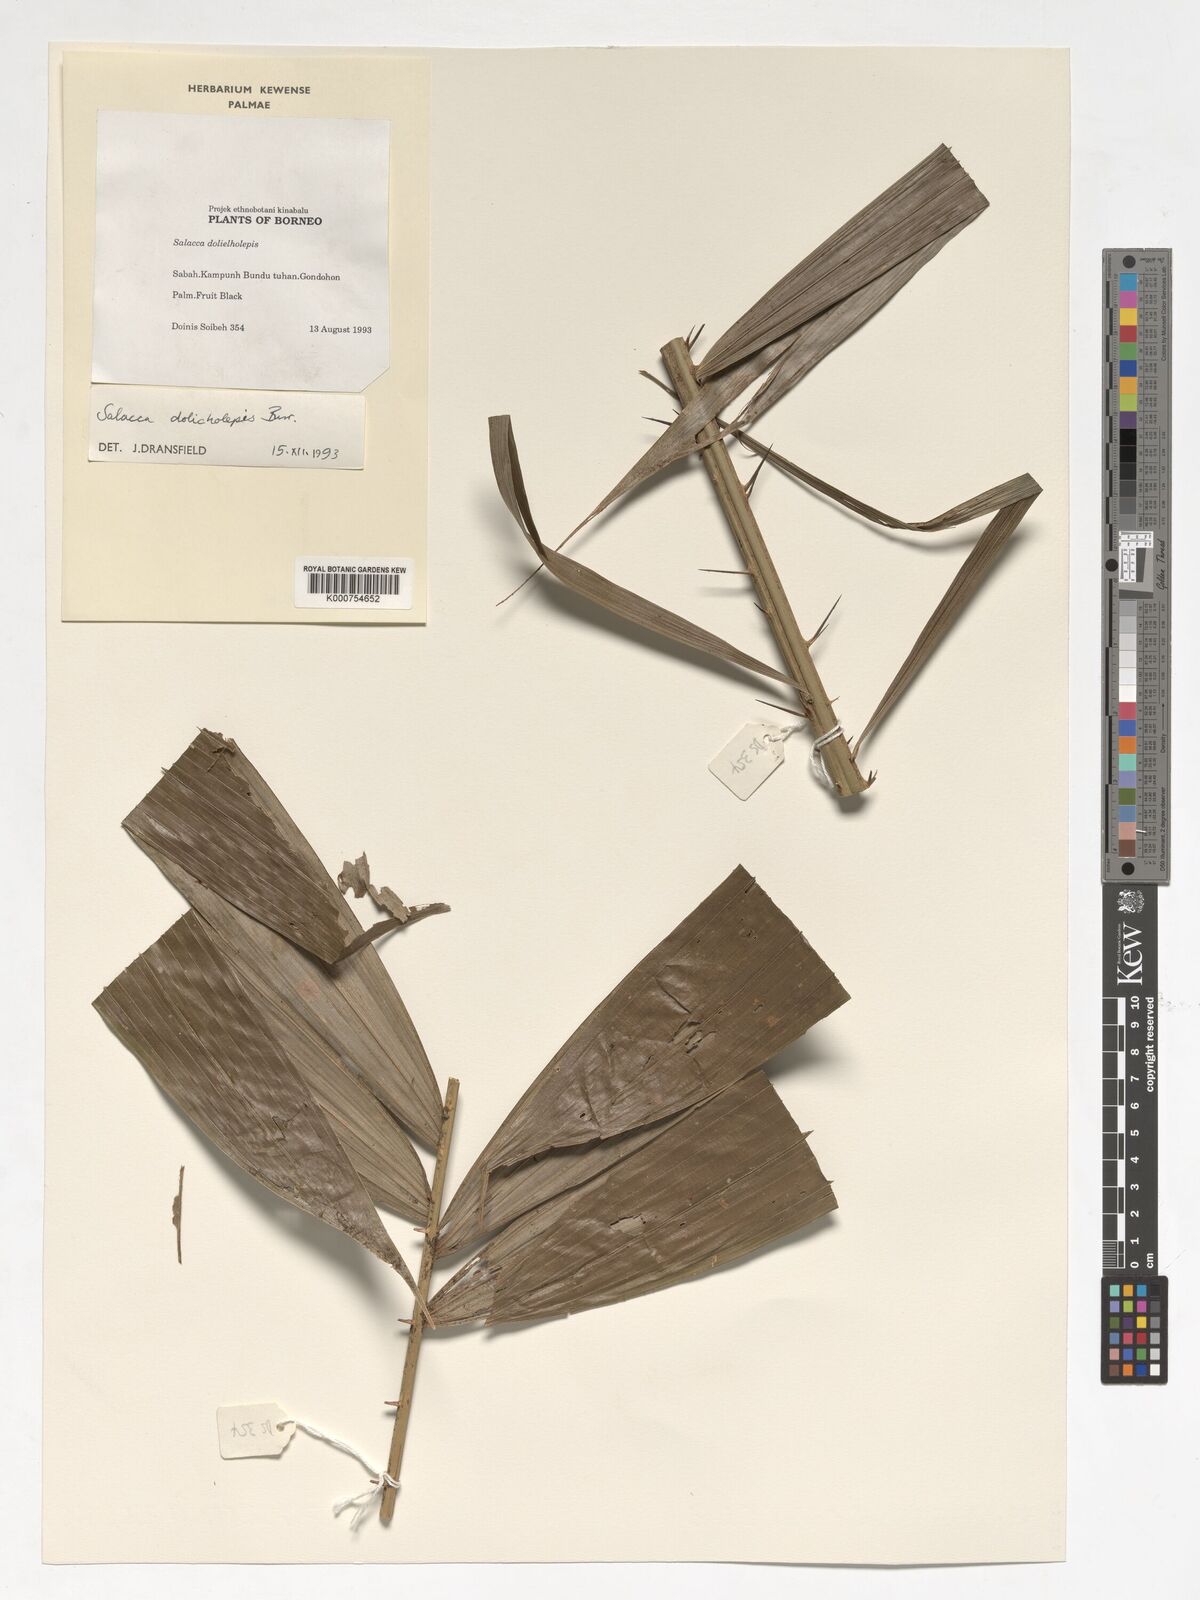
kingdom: Plantae
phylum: Tracheophyta
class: Liliopsida
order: Arecales
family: Arecaceae
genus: Salacca
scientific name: Salacca dolicholepis
